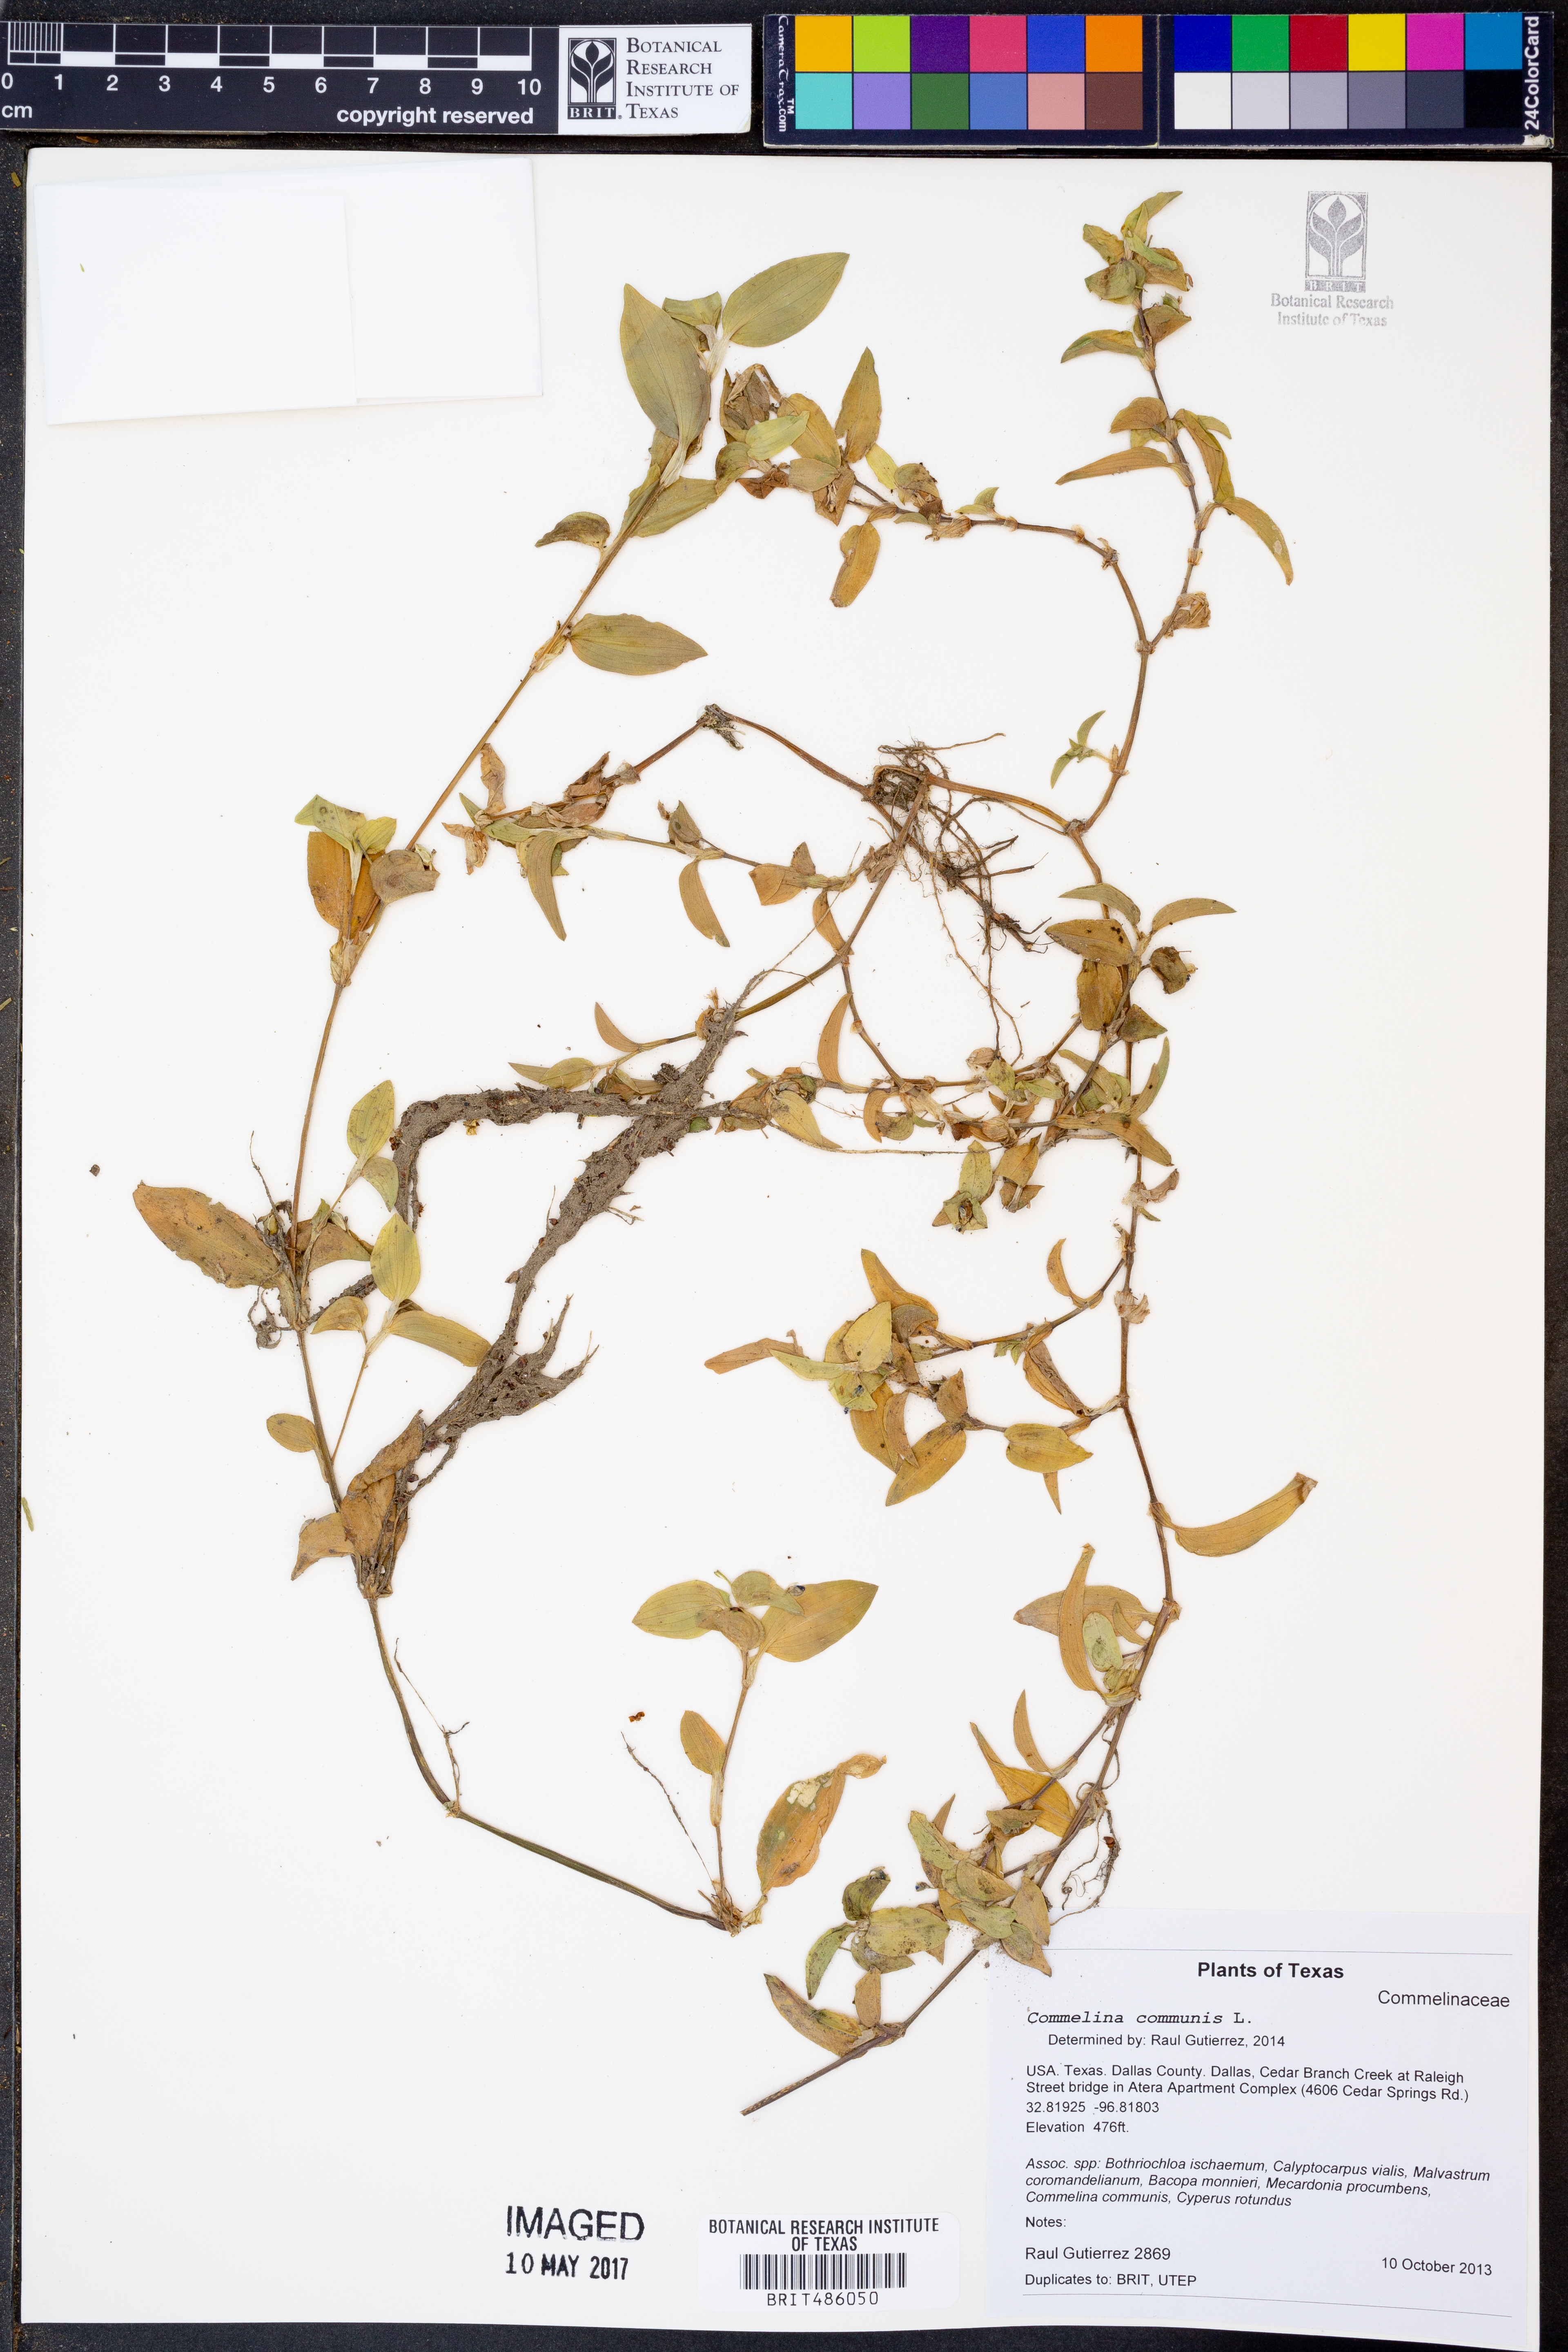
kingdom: Plantae
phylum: Tracheophyta
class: Liliopsida
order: Commelinales
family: Commelinaceae
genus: Commelina
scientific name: Commelina communis
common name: Asiatic dayflower
